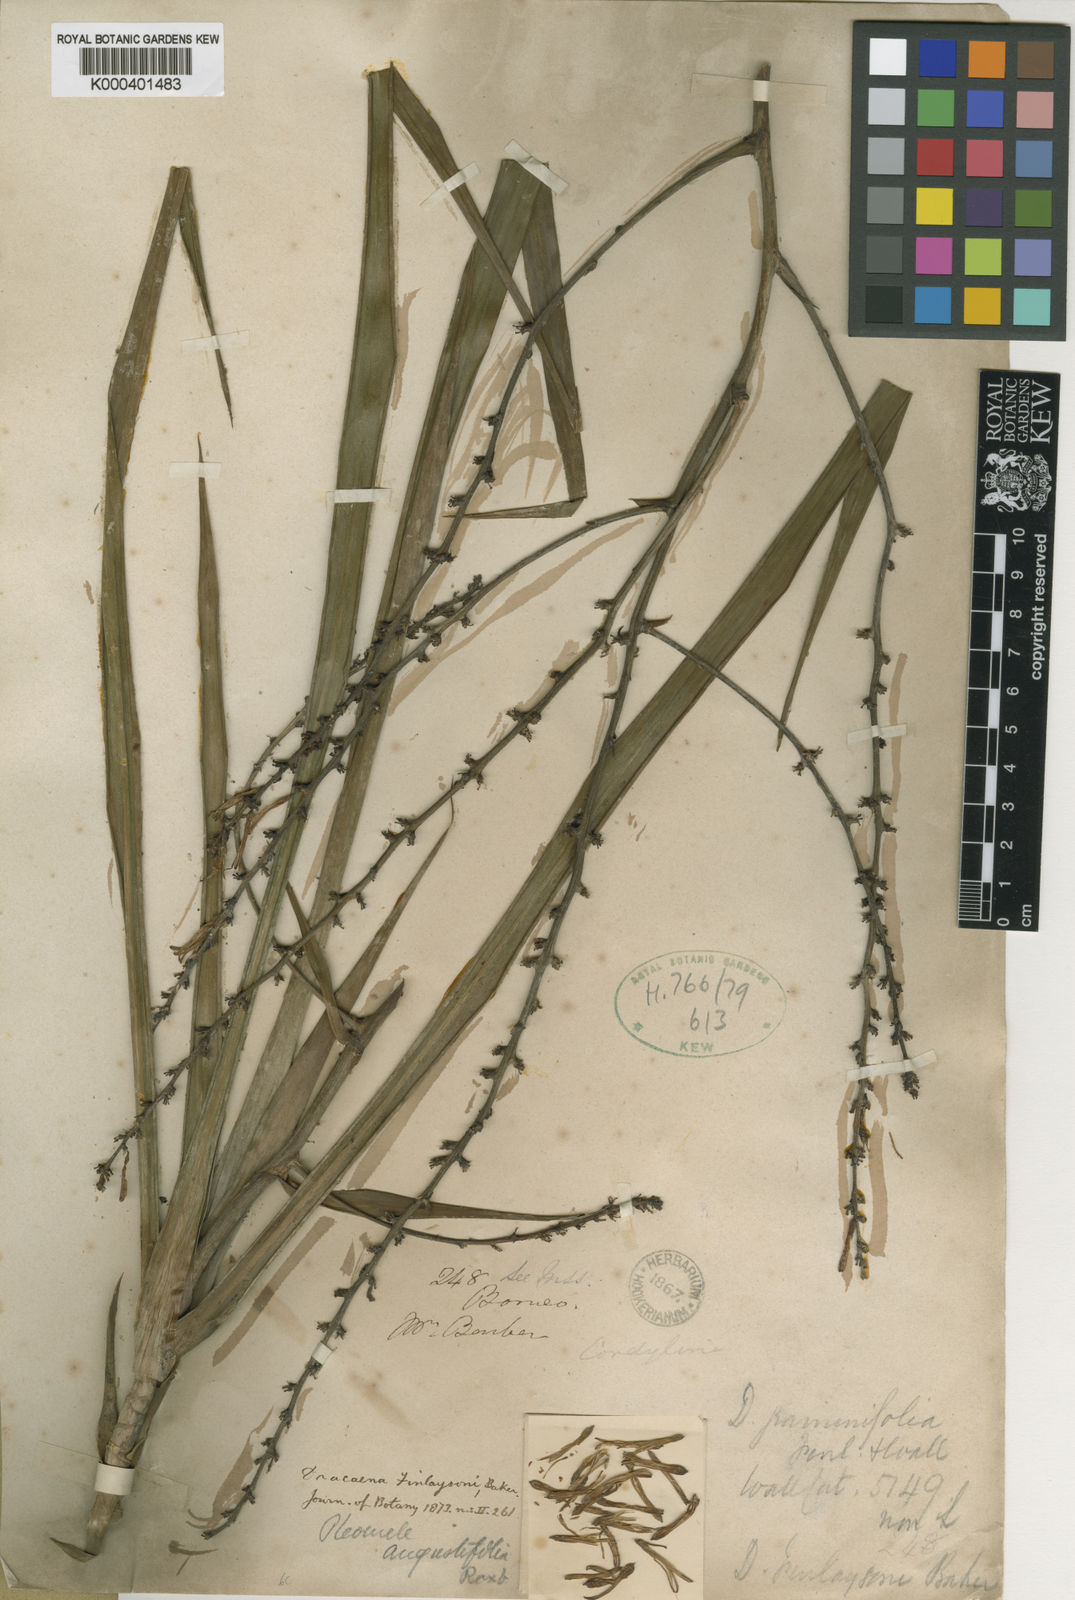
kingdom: Plantae
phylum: Tracheophyta
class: Liliopsida
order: Asparagales
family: Asparagaceae
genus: Dracaena
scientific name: Dracaena finlaysonii
